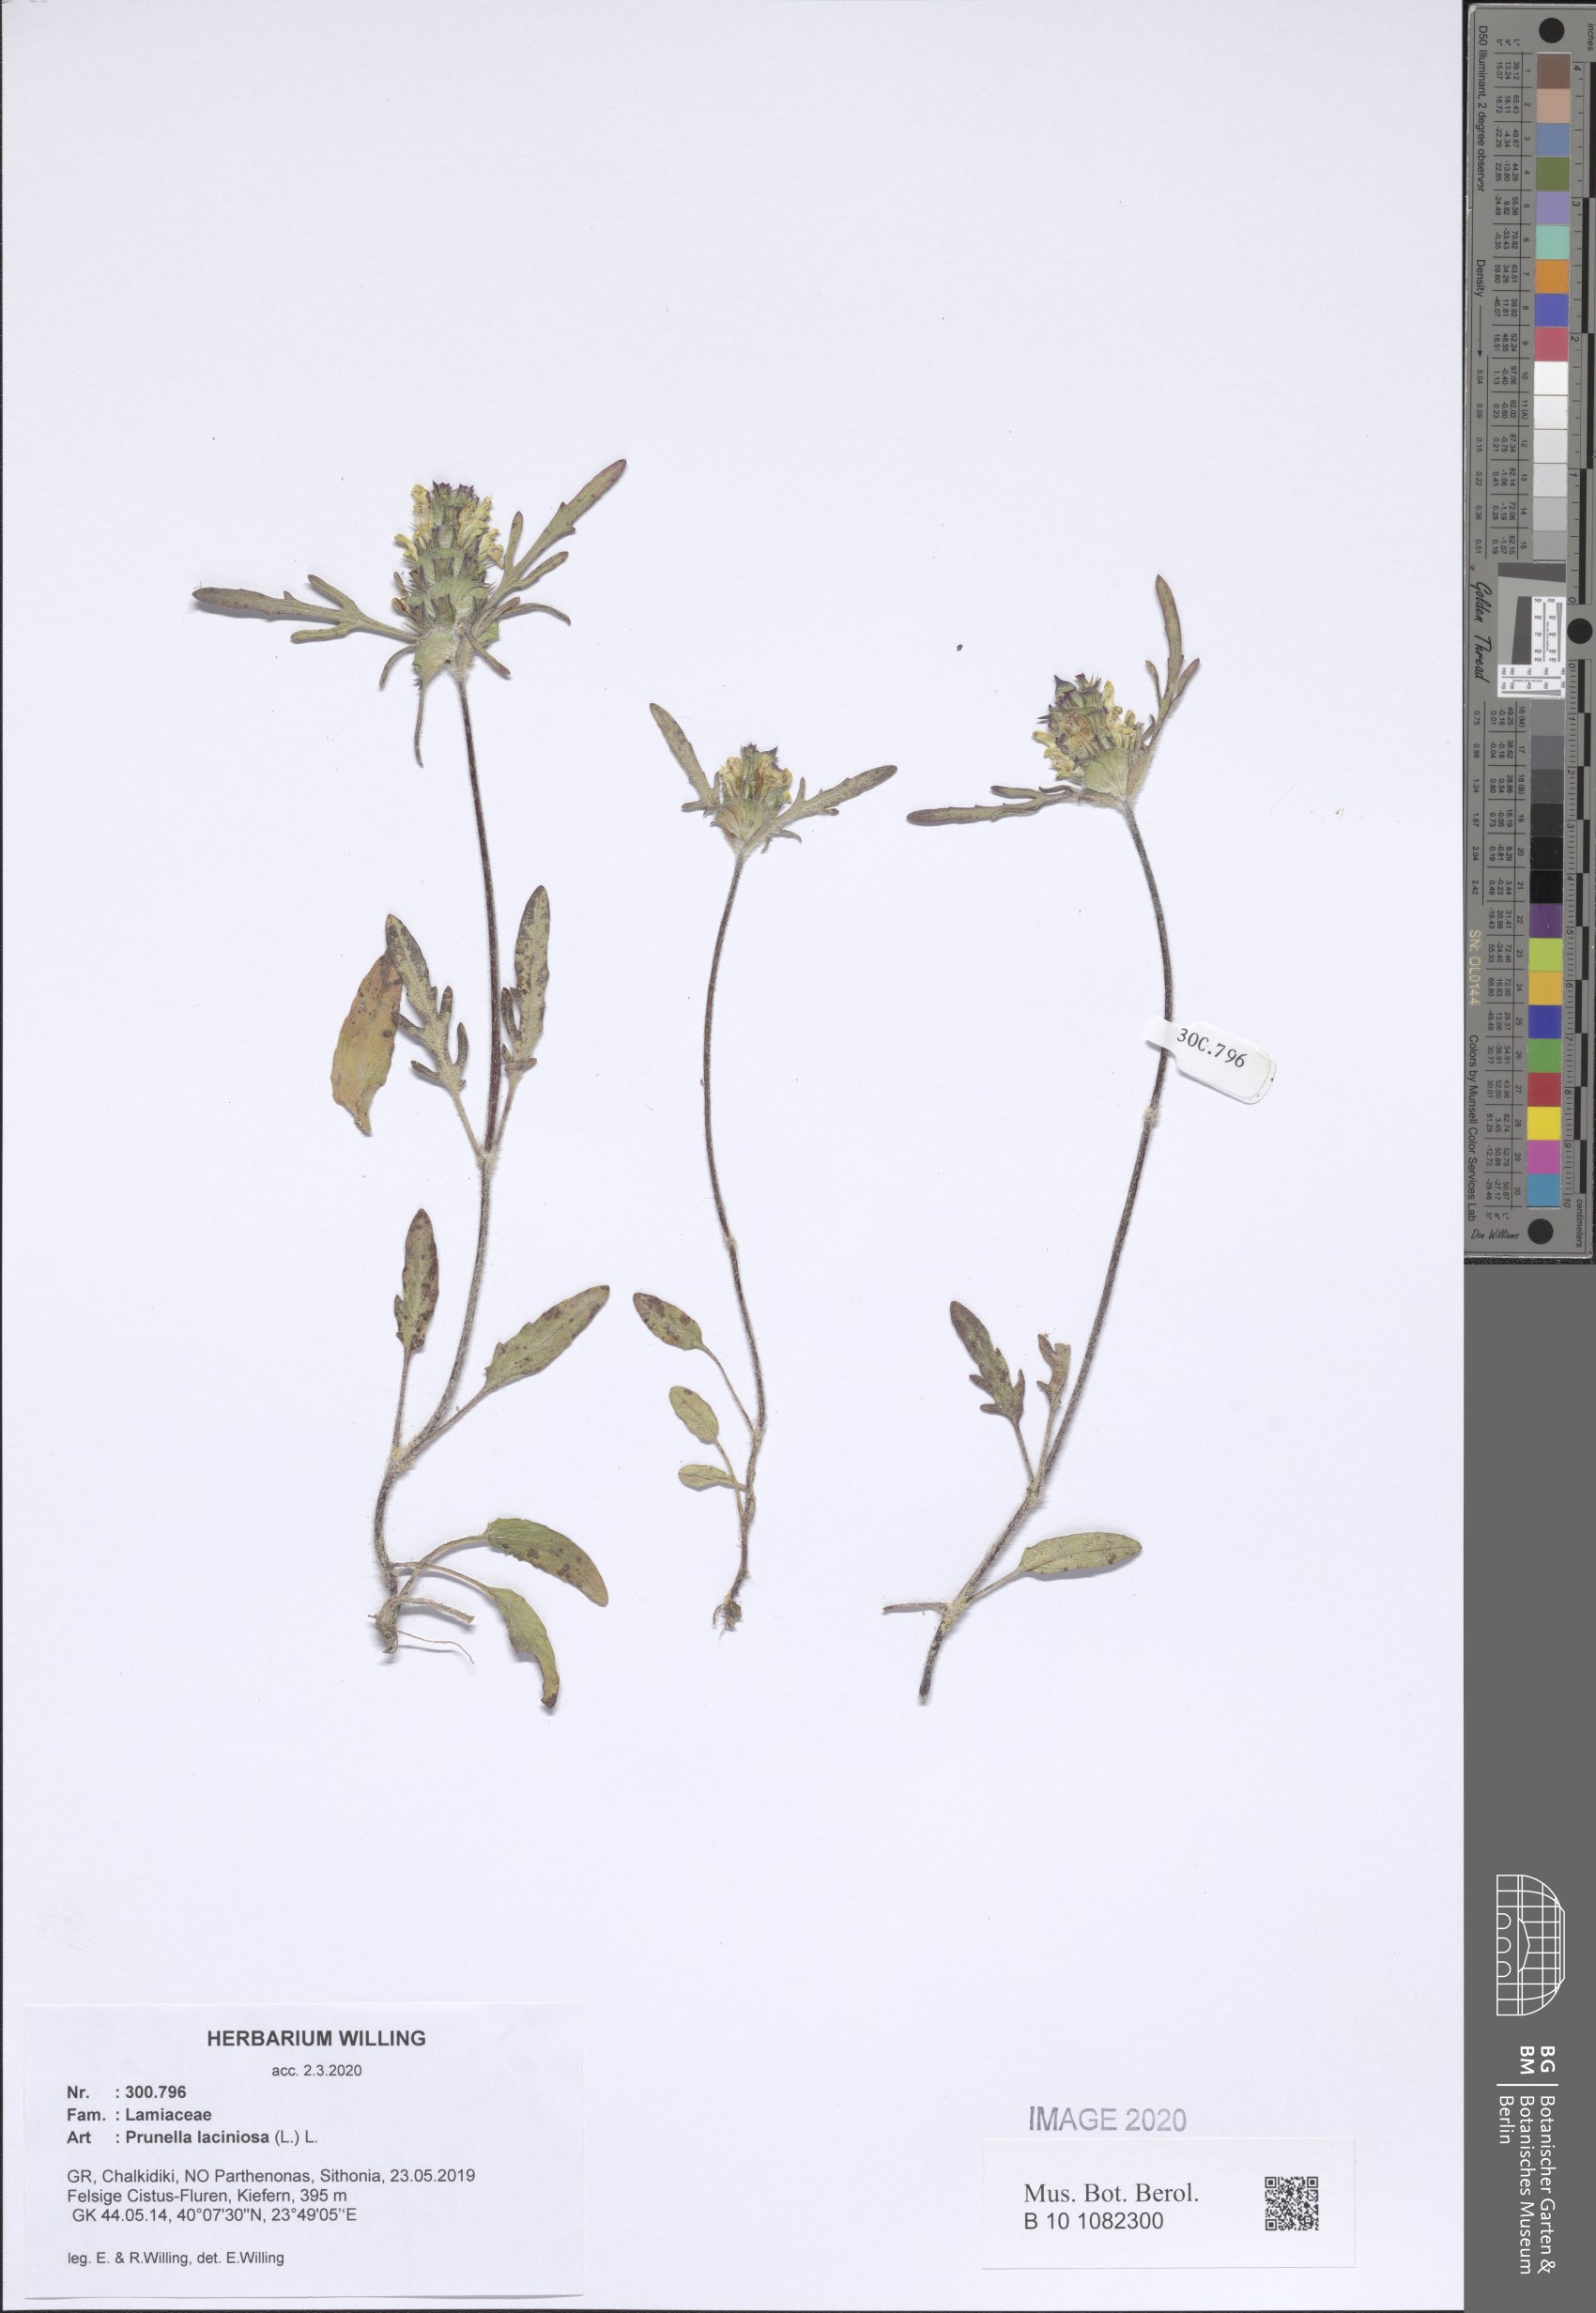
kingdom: Plantae
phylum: Tracheophyta
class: Magnoliopsida
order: Lamiales
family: Lamiaceae
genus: Prunella
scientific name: Prunella laciniata
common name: Cut-leaved selfheal
